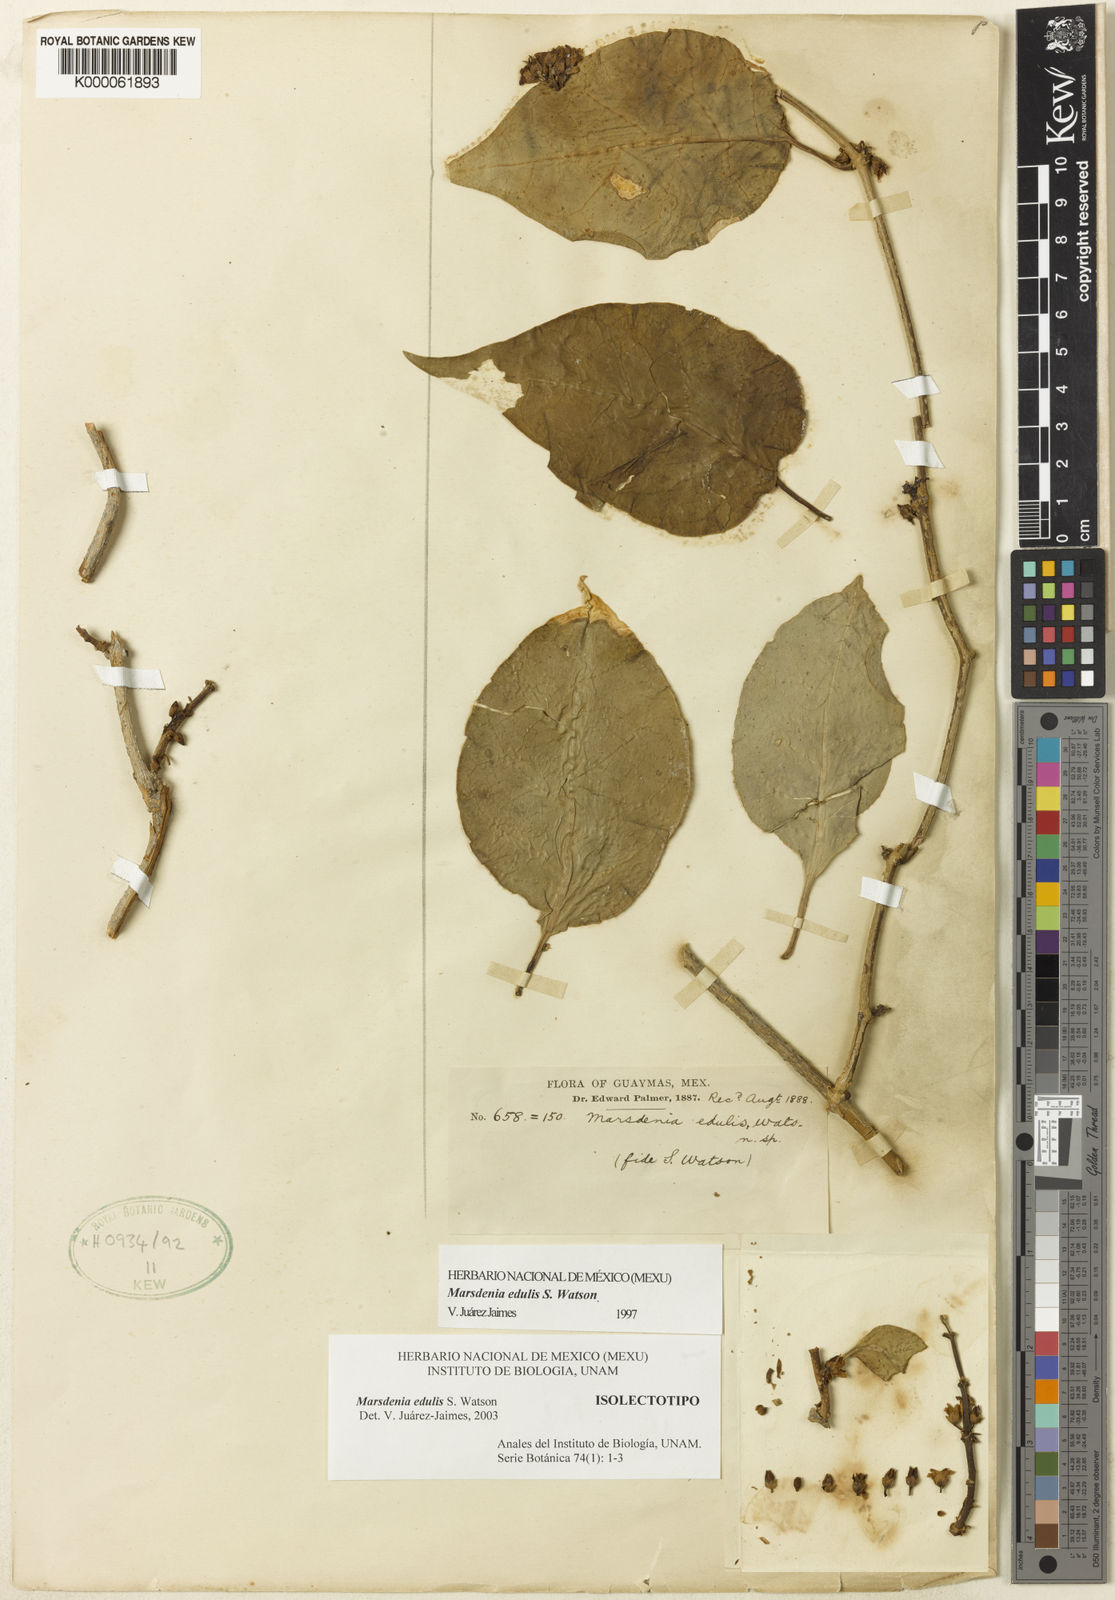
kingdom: Plantae
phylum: Tracheophyta
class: Magnoliopsida
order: Gentianales
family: Apocynaceae
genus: Ruehssia
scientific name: Ruehssia edulis
